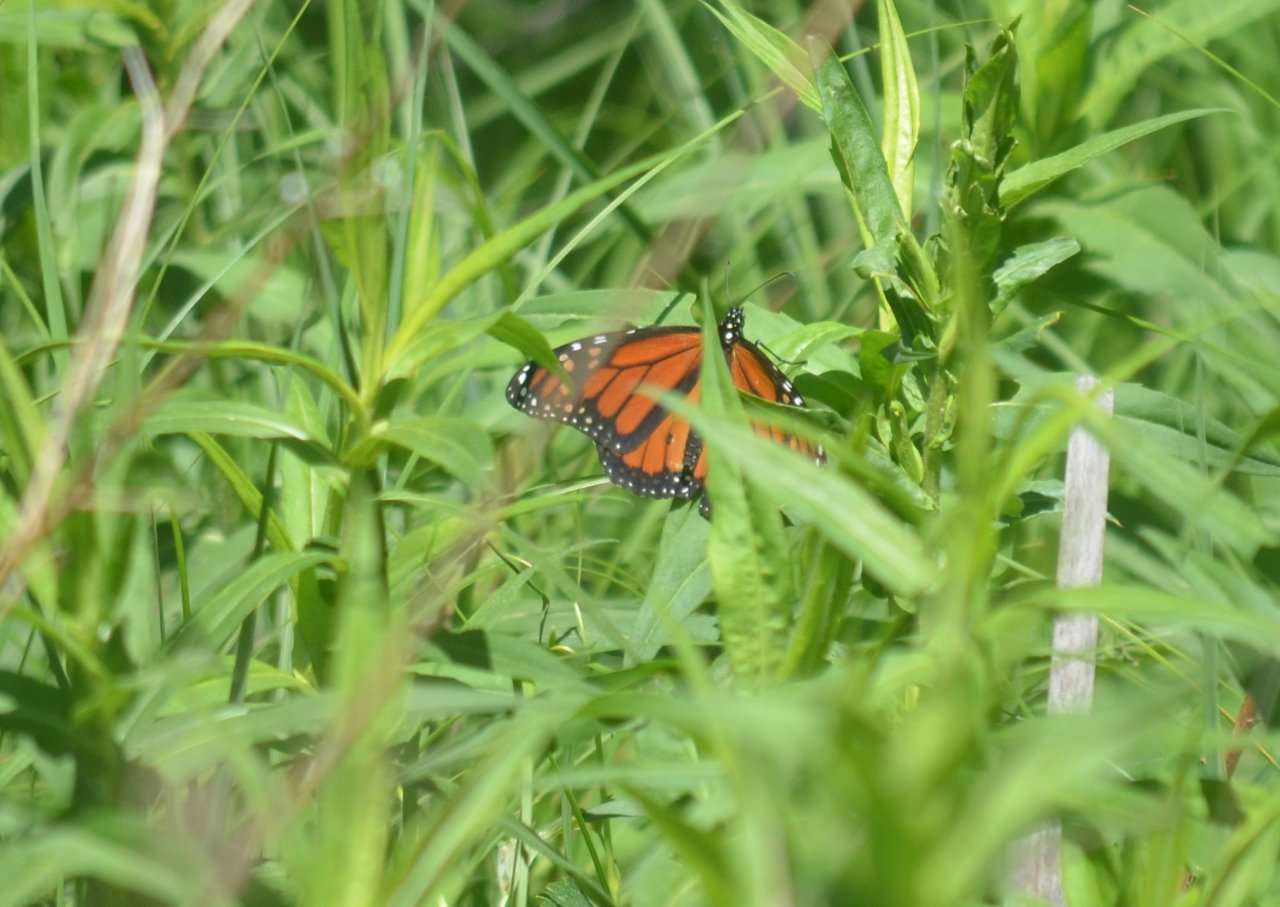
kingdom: Animalia
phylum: Arthropoda
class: Insecta
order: Lepidoptera
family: Nymphalidae
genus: Danaus
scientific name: Danaus plexippus
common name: Monarch
